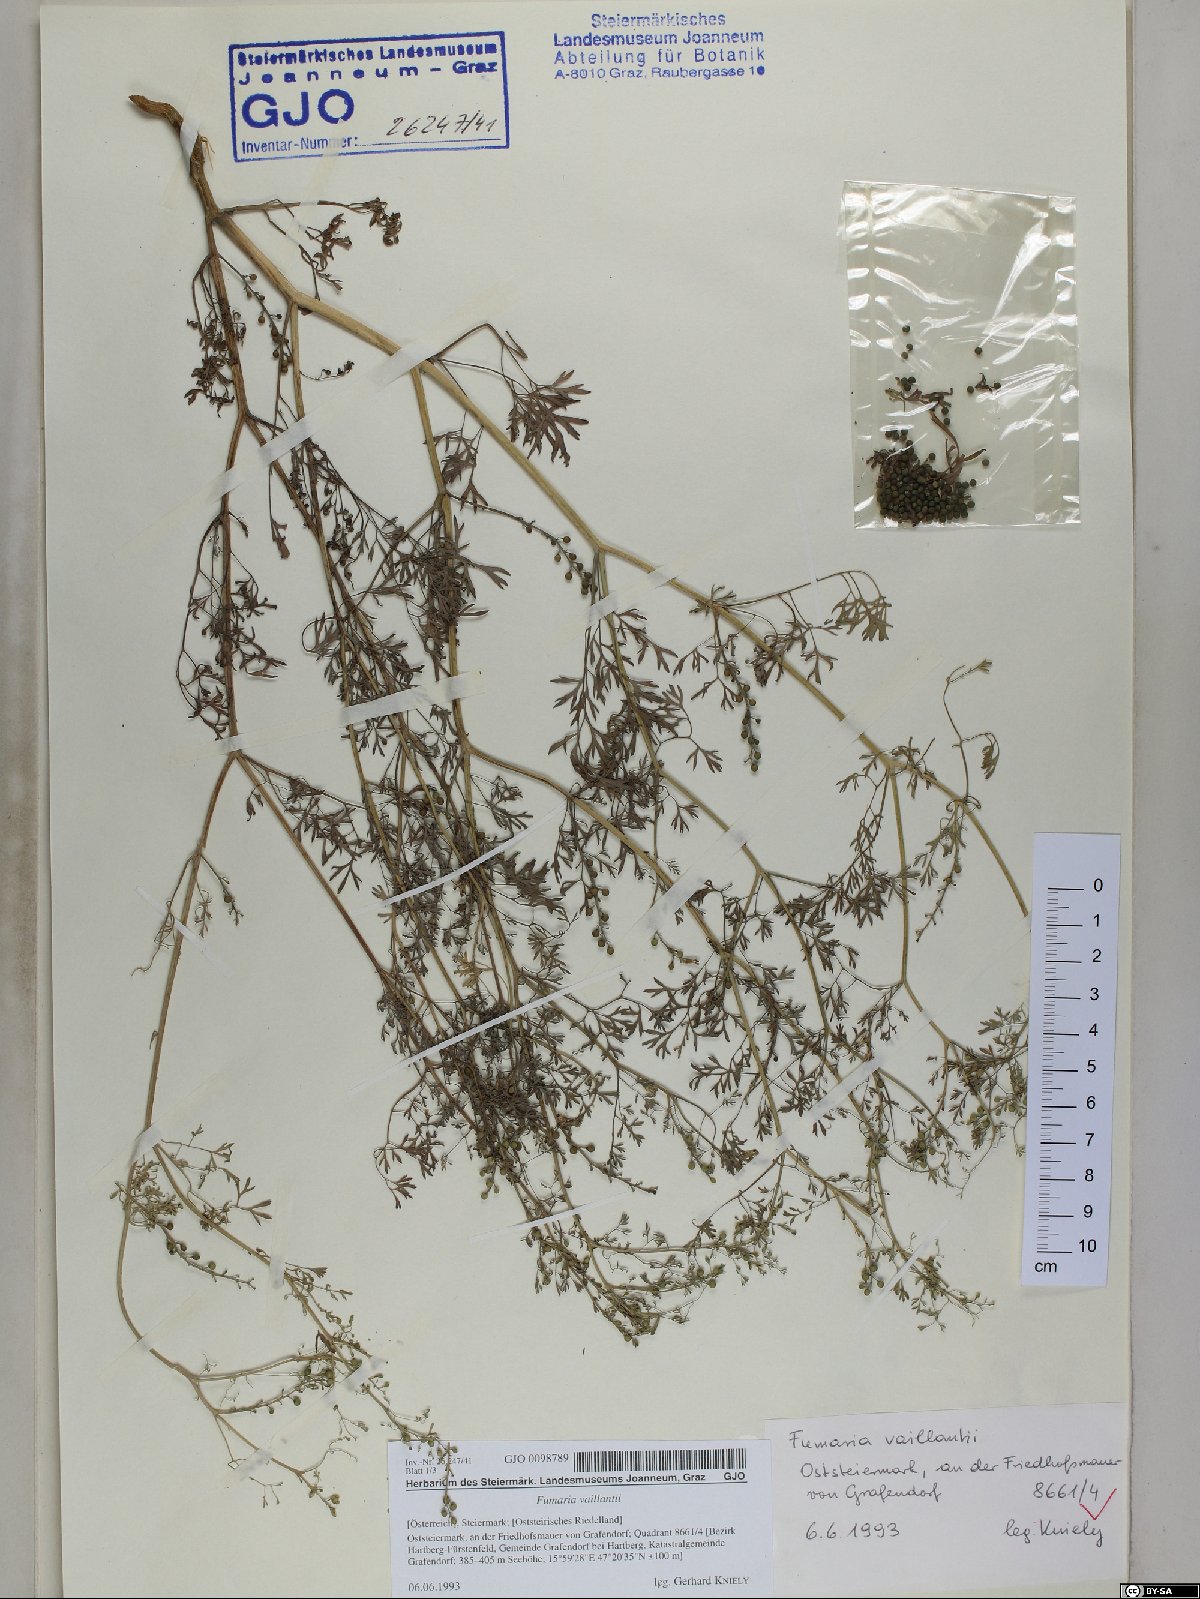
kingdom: Plantae
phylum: Tracheophyta
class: Magnoliopsida
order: Ranunculales
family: Papaveraceae
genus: Fumaria
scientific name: Fumaria vaillantii
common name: Few-flowered fumitory
